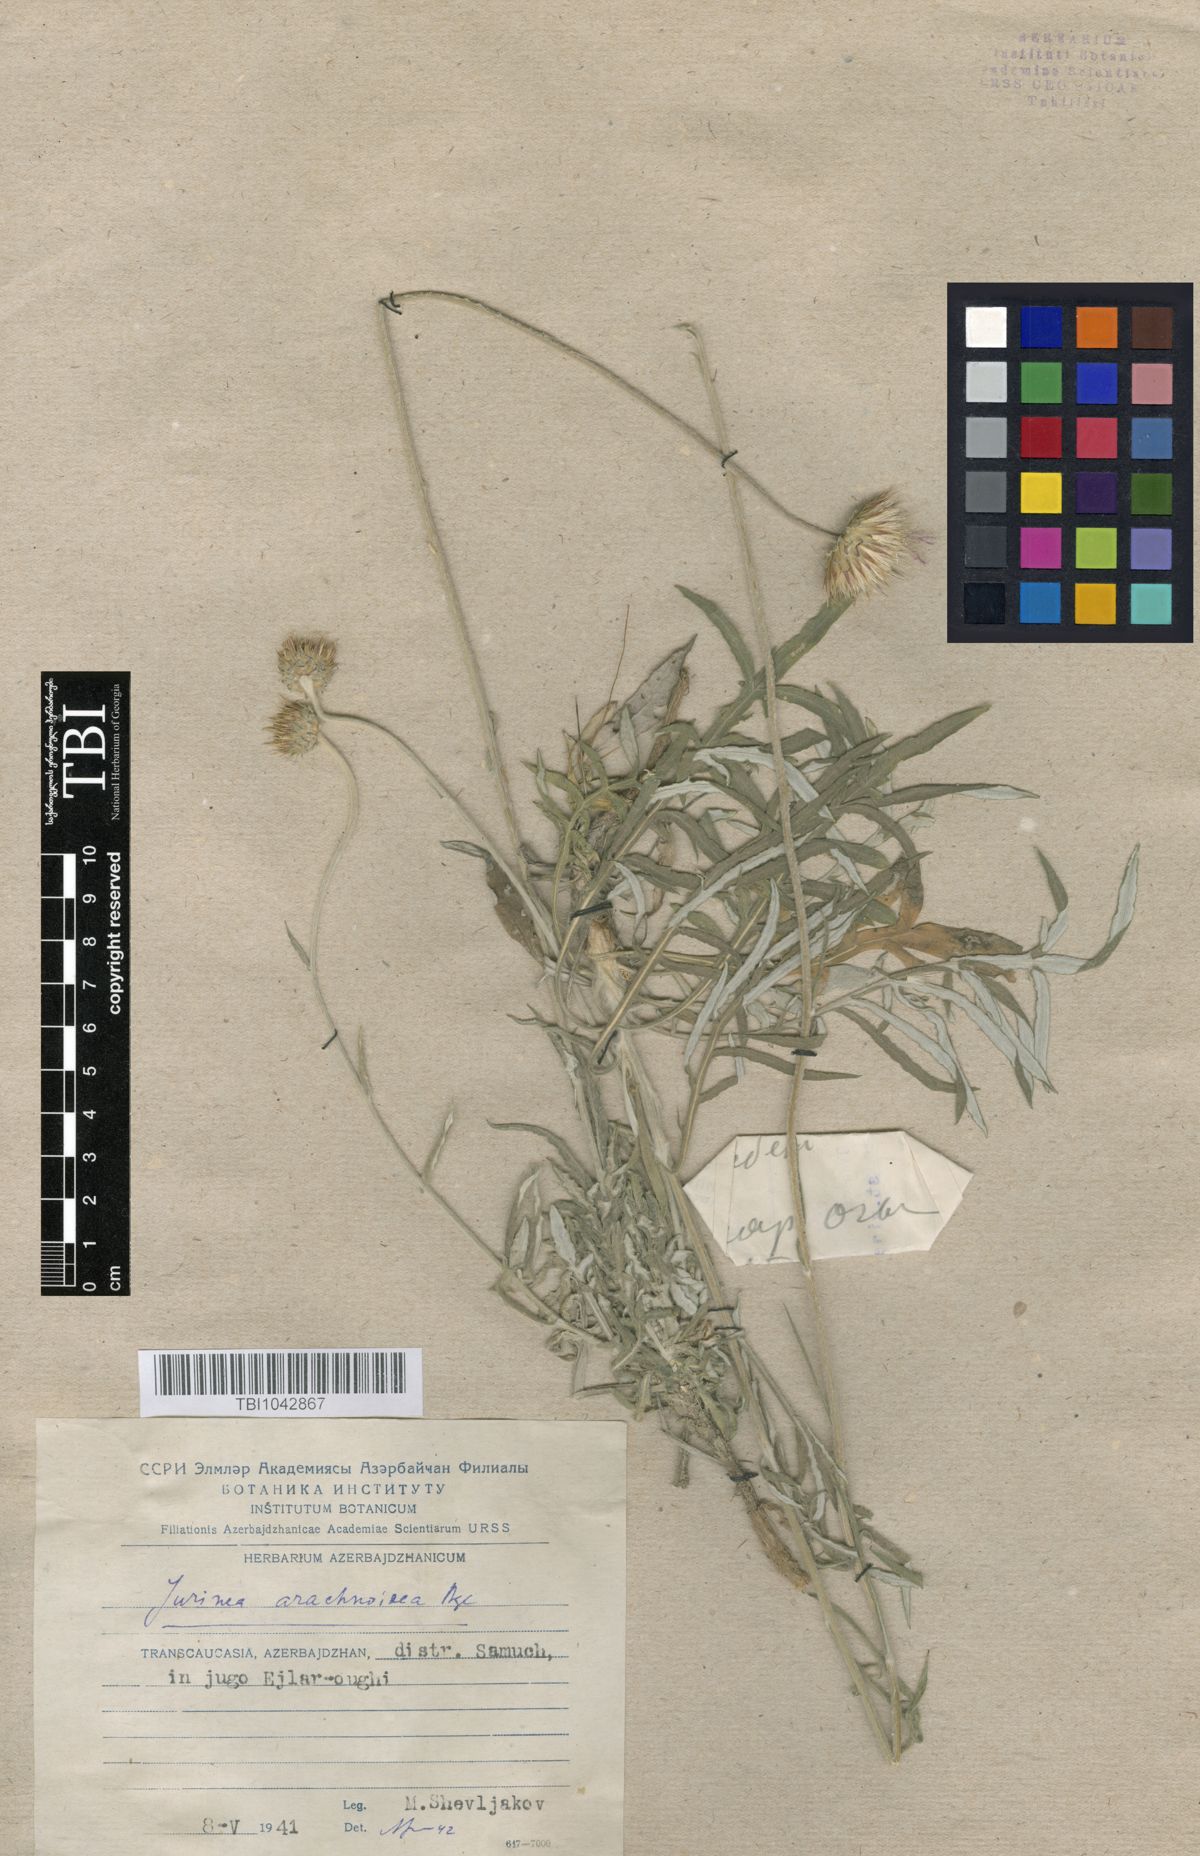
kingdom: Plantae
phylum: Tracheophyta
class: Magnoliopsida
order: Asterales
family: Asteraceae
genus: Jurinea
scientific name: Jurinea blanda
